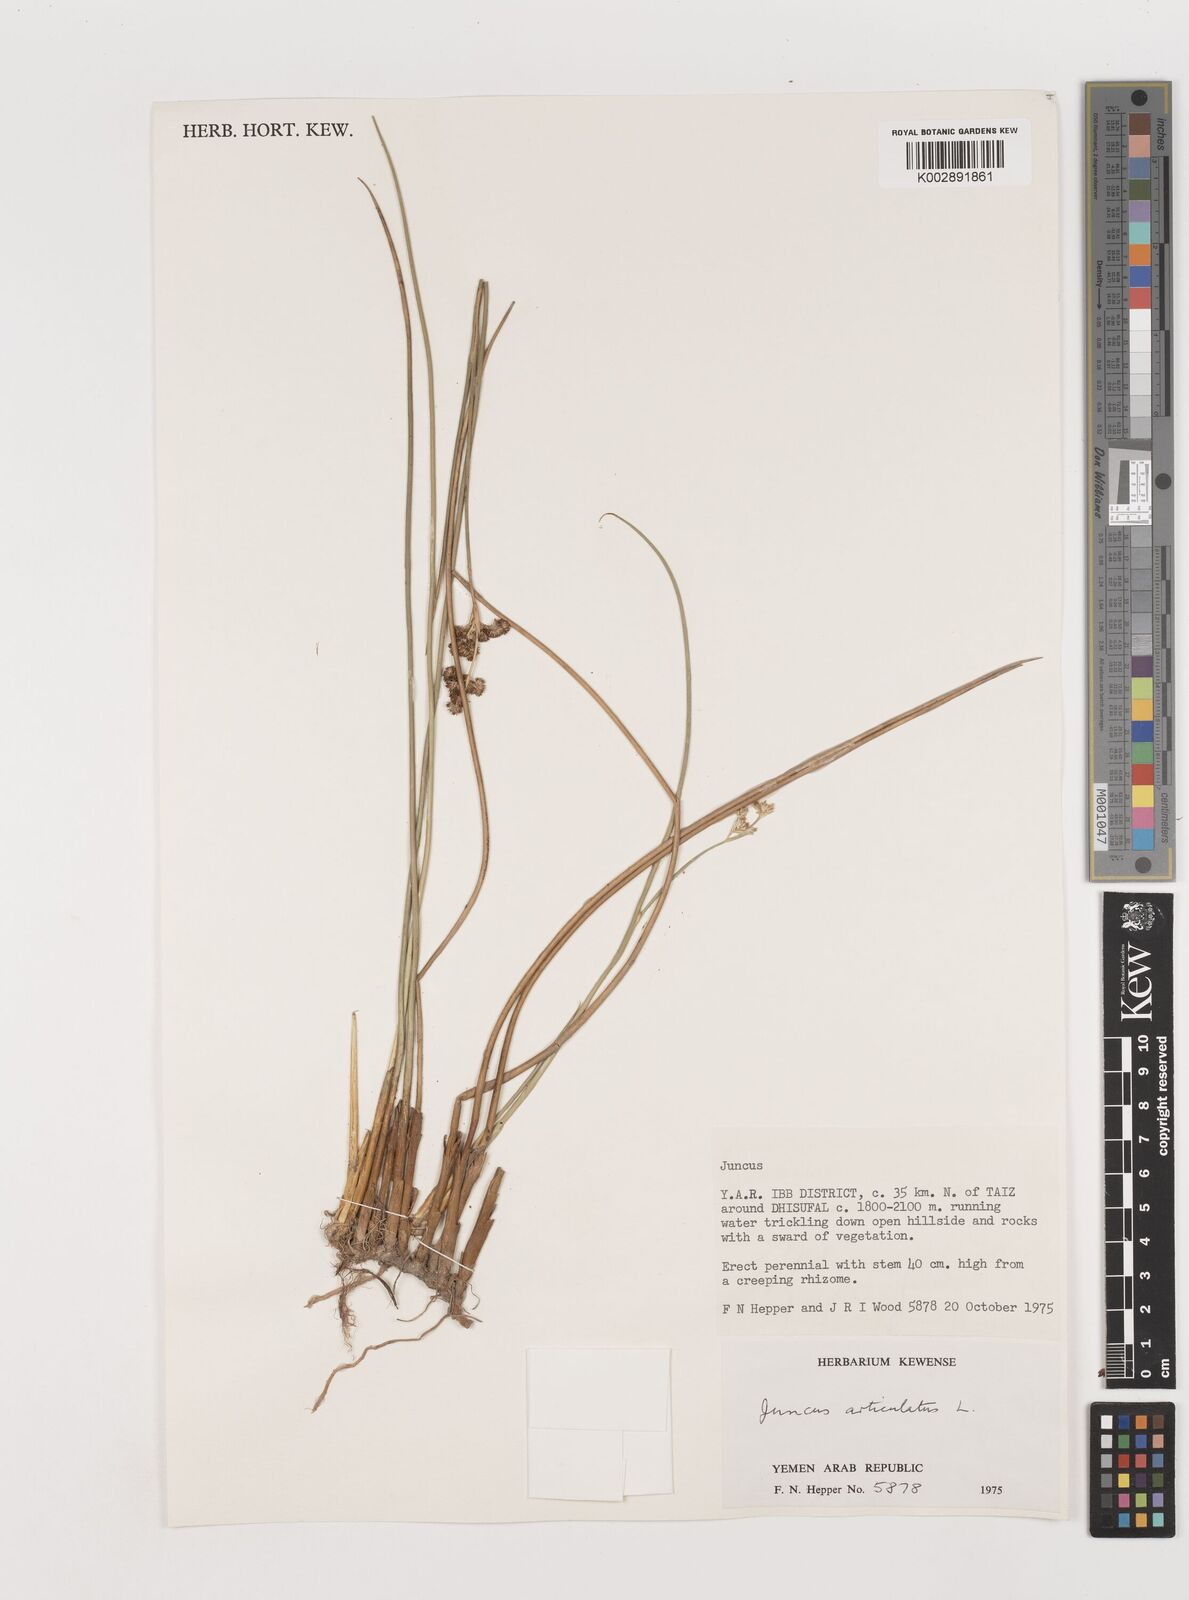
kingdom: Plantae
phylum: Tracheophyta
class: Liliopsida
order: Poales
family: Juncaceae
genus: Juncus
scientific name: Juncus articulatus
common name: Jointed rush
